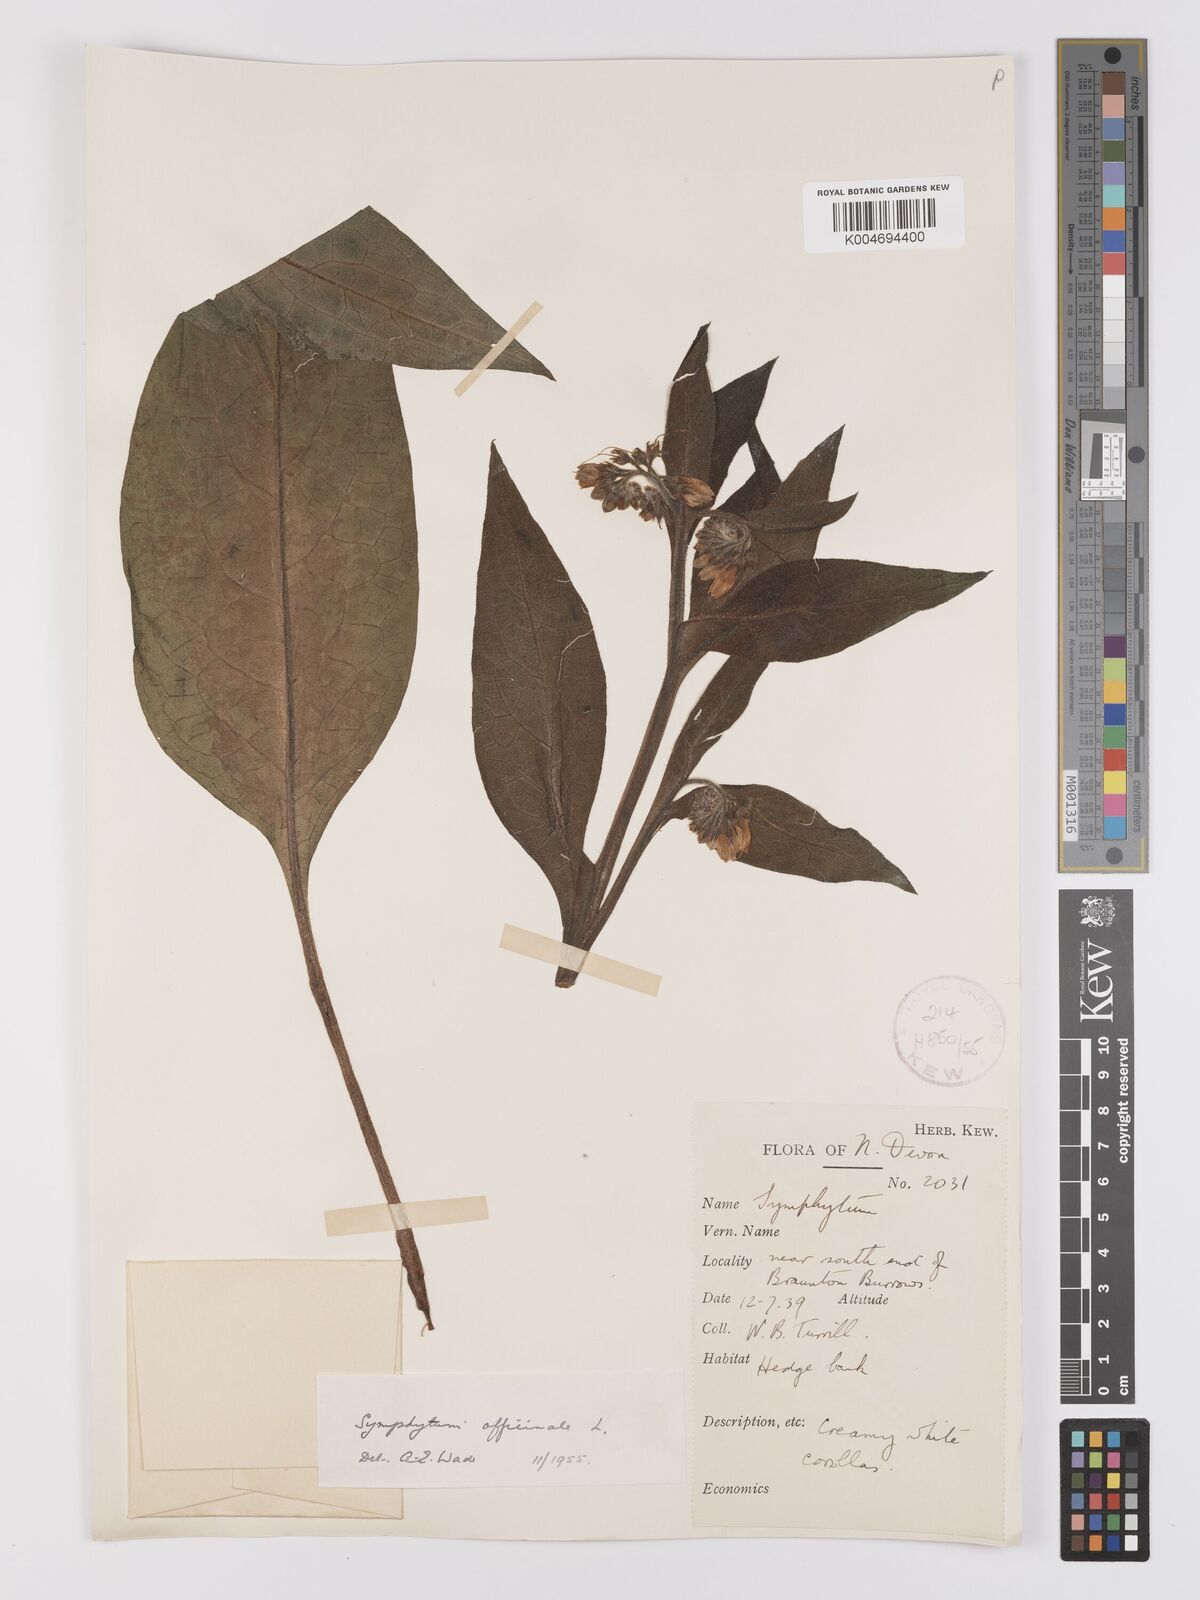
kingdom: Plantae
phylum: Tracheophyta
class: Magnoliopsida
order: Boraginales
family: Boraginaceae
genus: Symphytum
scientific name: Symphytum officinale
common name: Common comfrey
